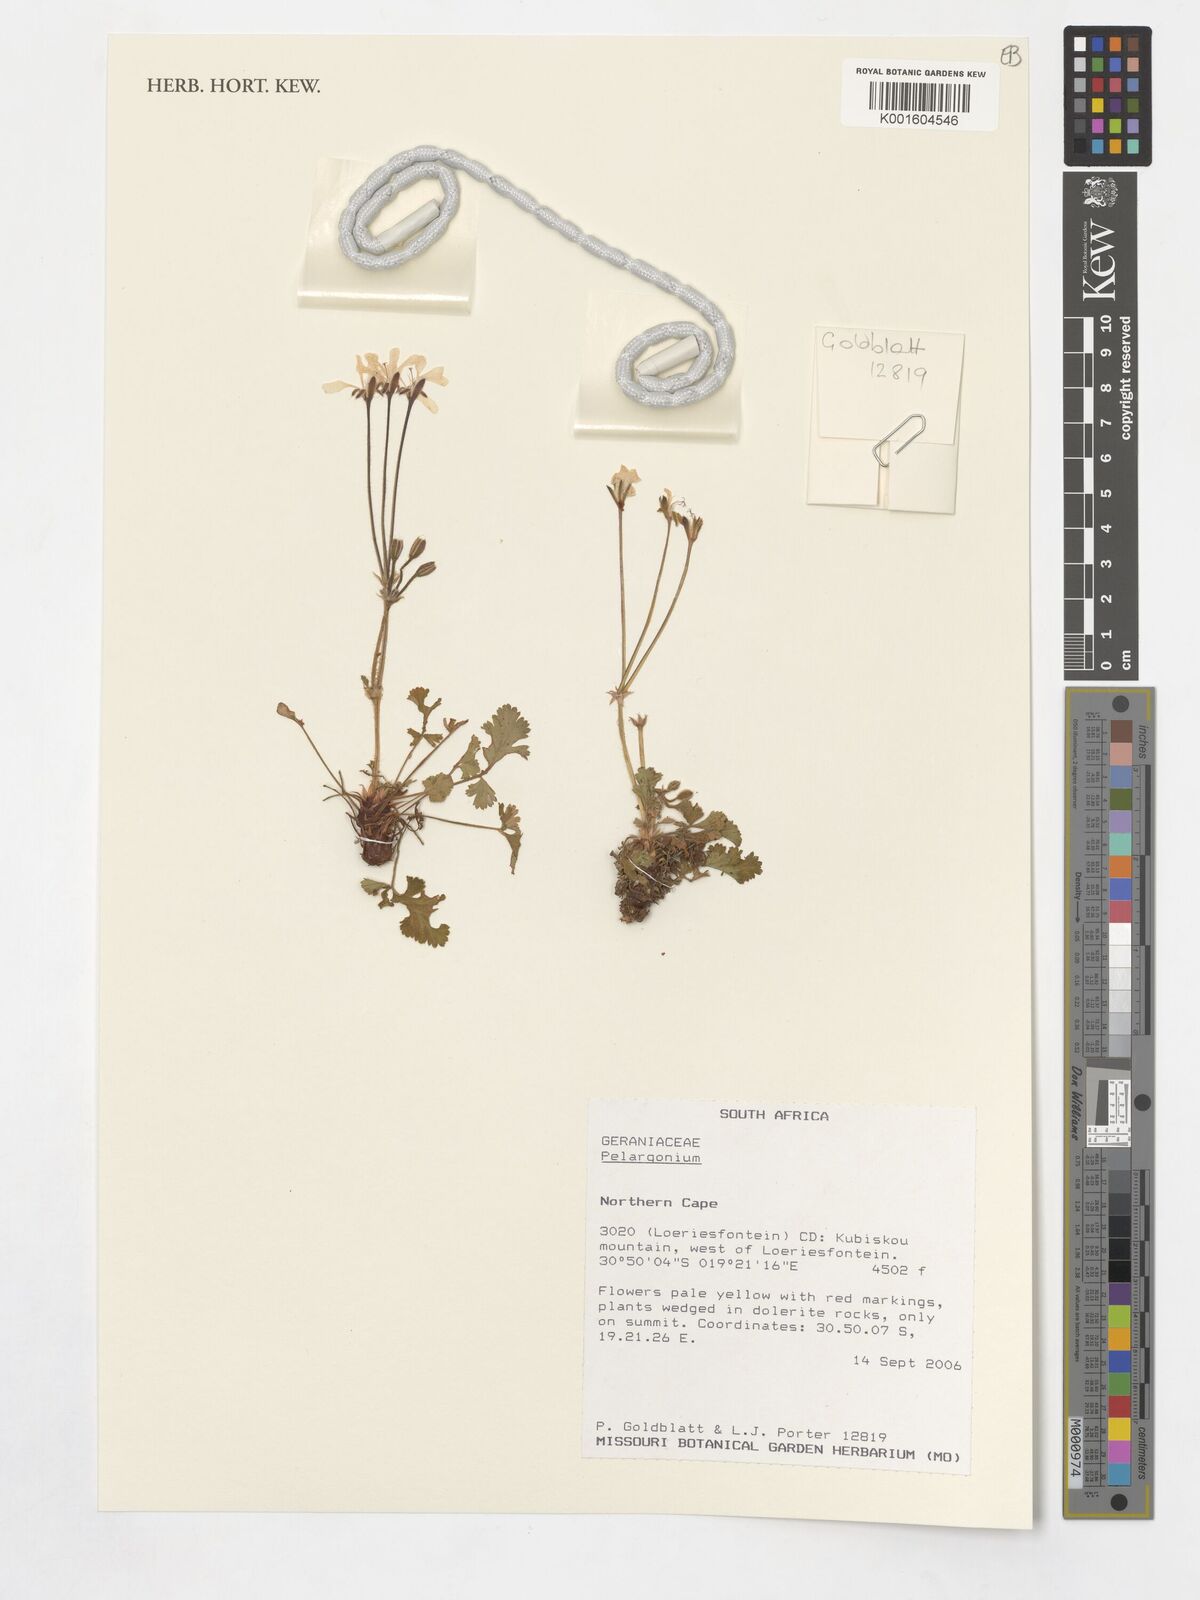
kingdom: Plantae
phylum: Tracheophyta
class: Magnoliopsida
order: Geraniales
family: Geraniaceae
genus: Pelargonium
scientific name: Pelargonium
